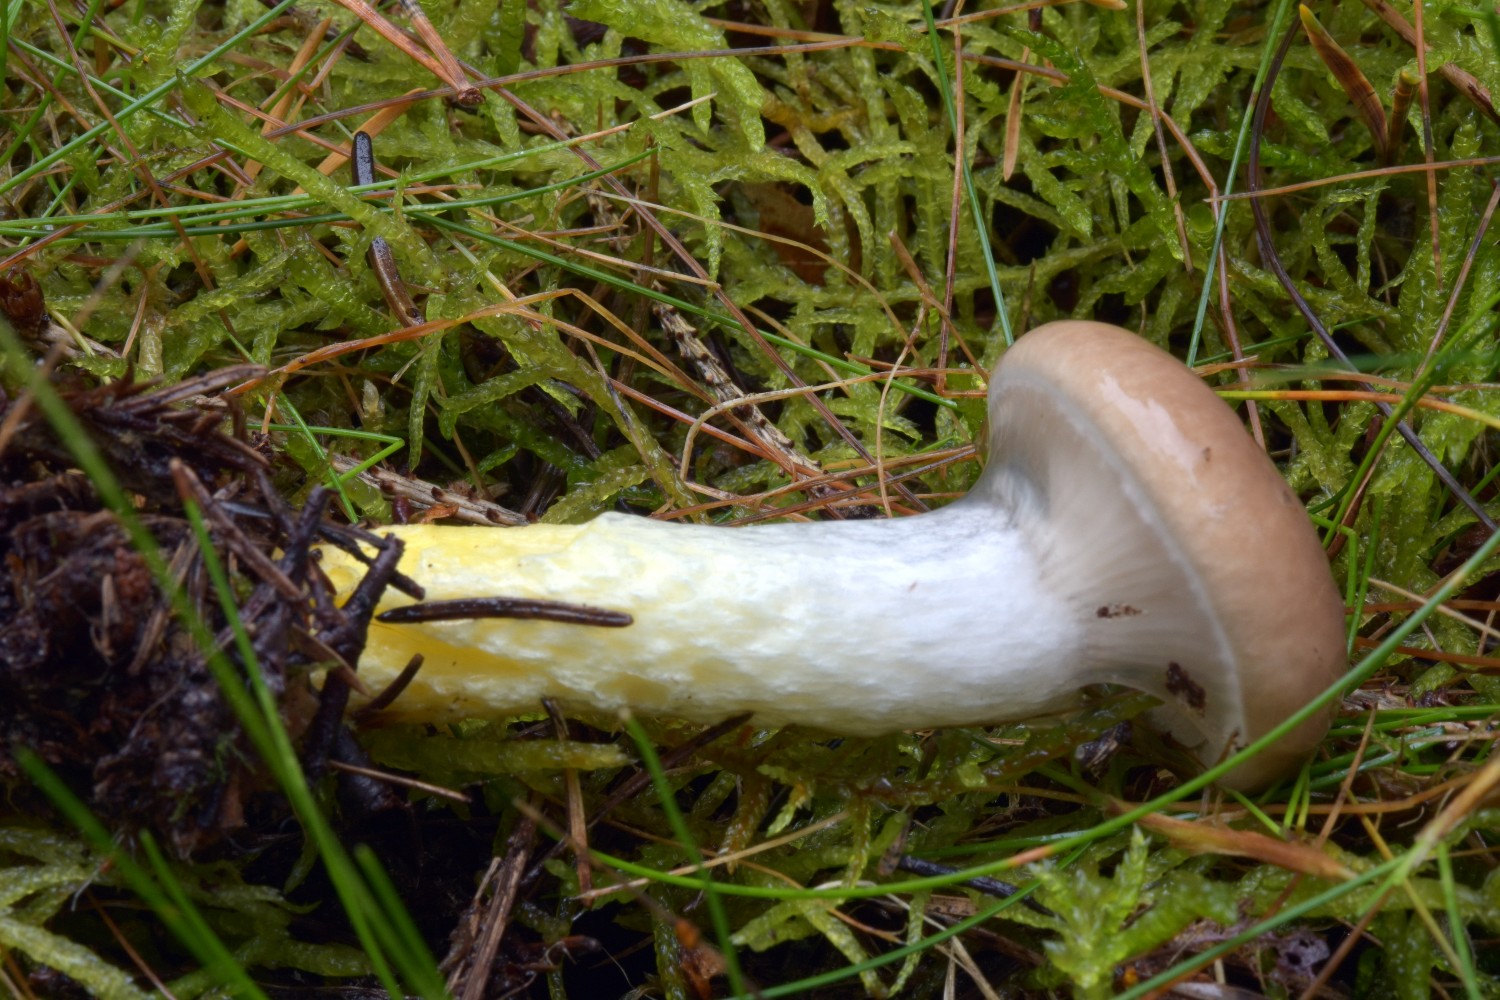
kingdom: Fungi
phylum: Basidiomycota
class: Agaricomycetes
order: Boletales
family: Gomphidiaceae
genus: Gomphidius
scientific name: Gomphidius glutinosus
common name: grå slimslør
